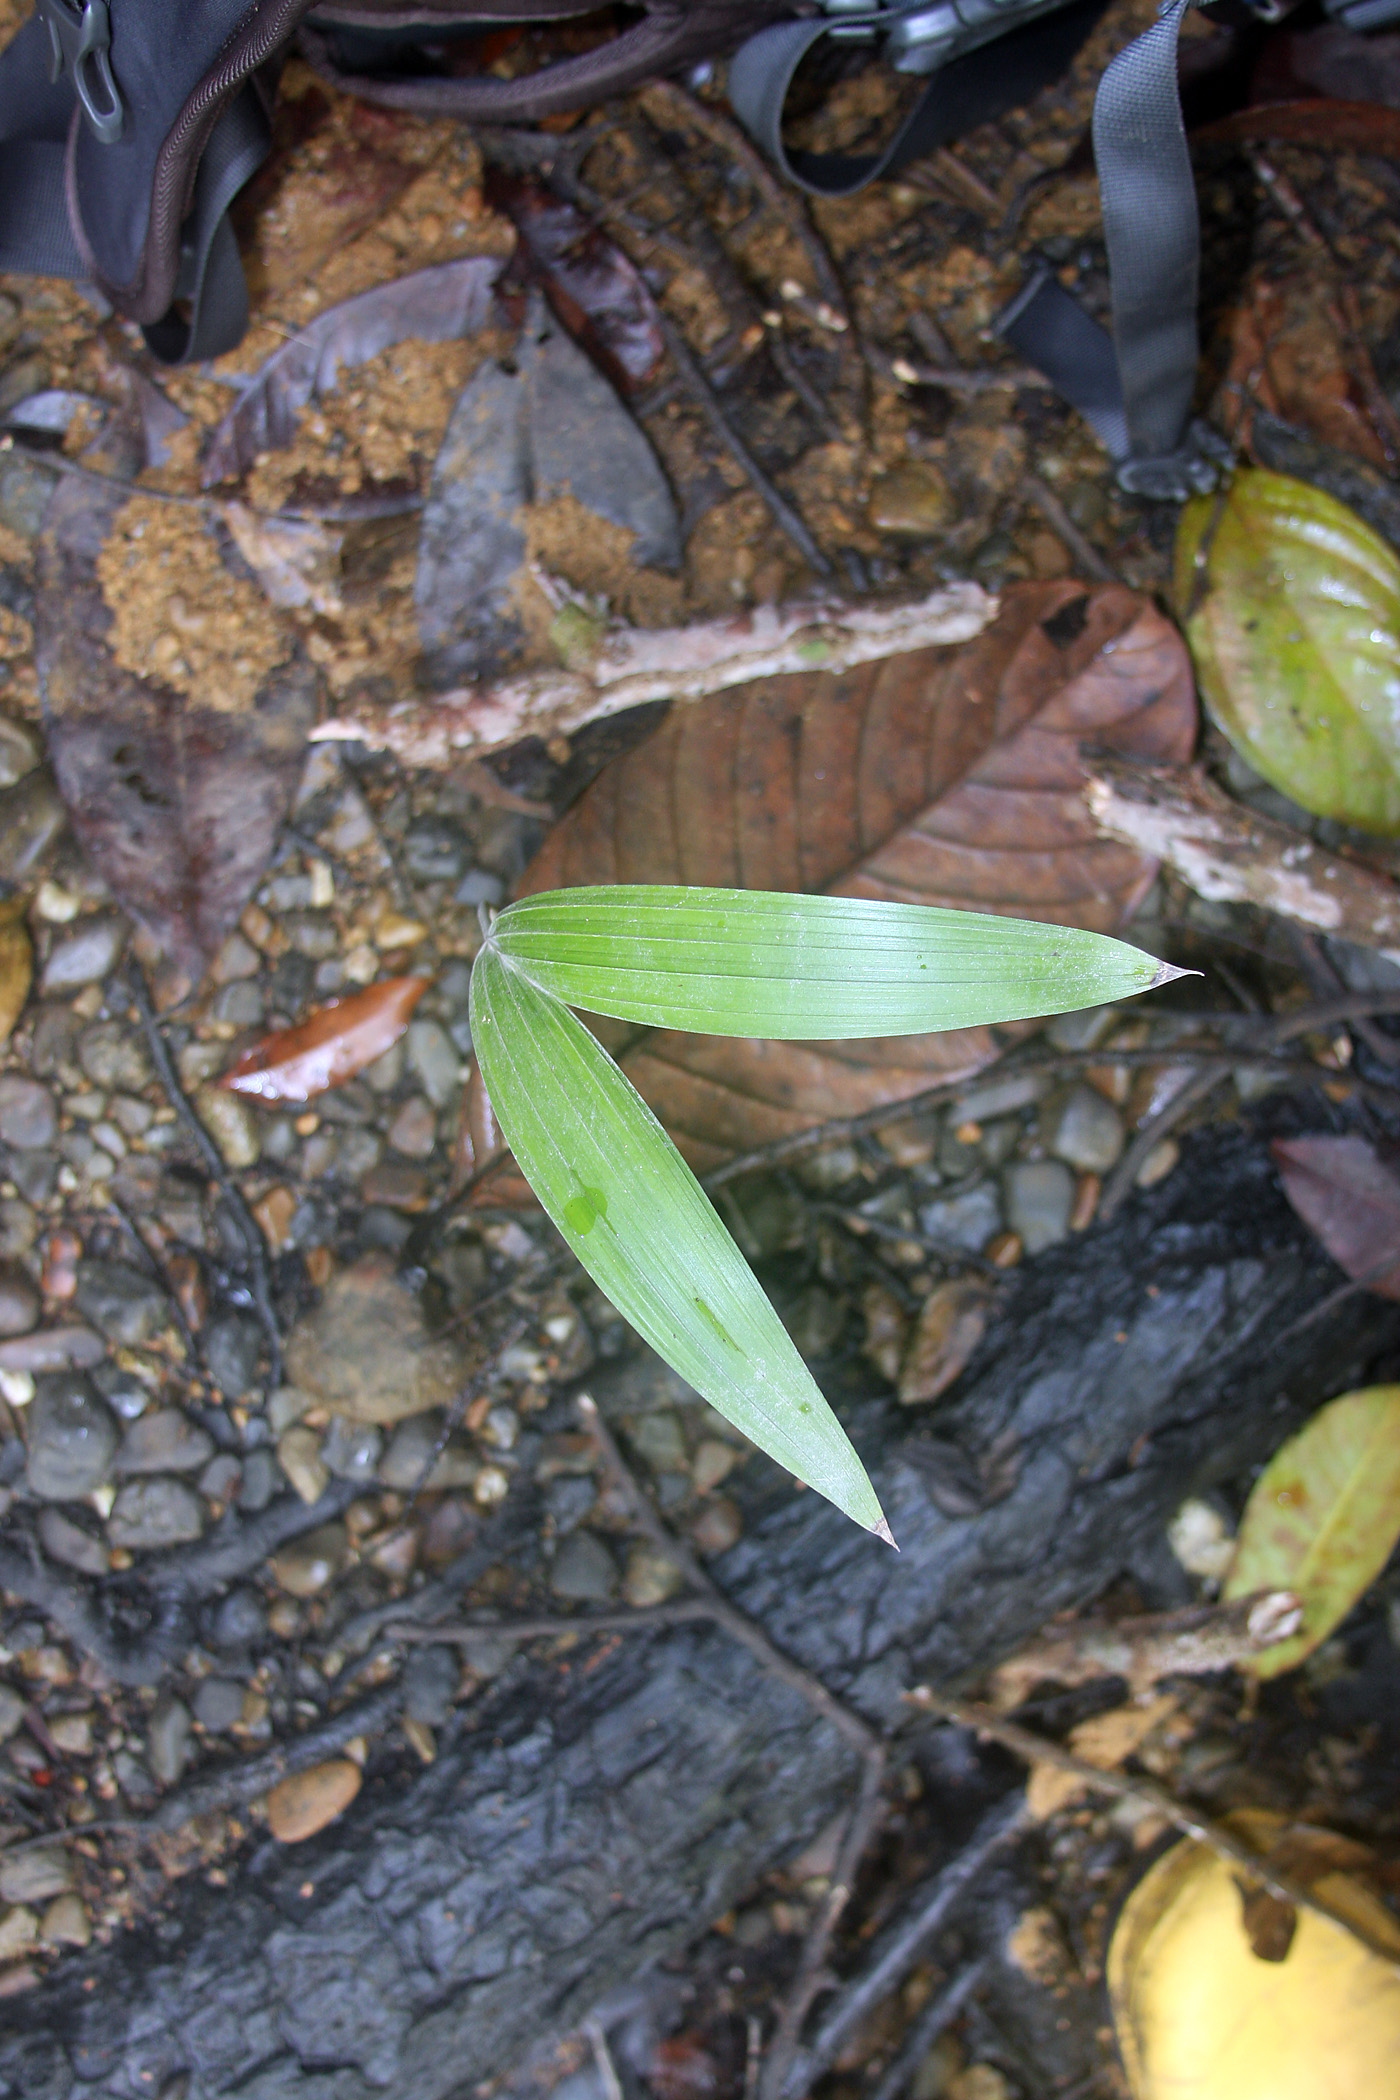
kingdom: Plantae
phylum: Tracheophyta
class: Liliopsida
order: Arecales
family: Arecaceae
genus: Asterogyne
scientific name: Asterogyne martiana
